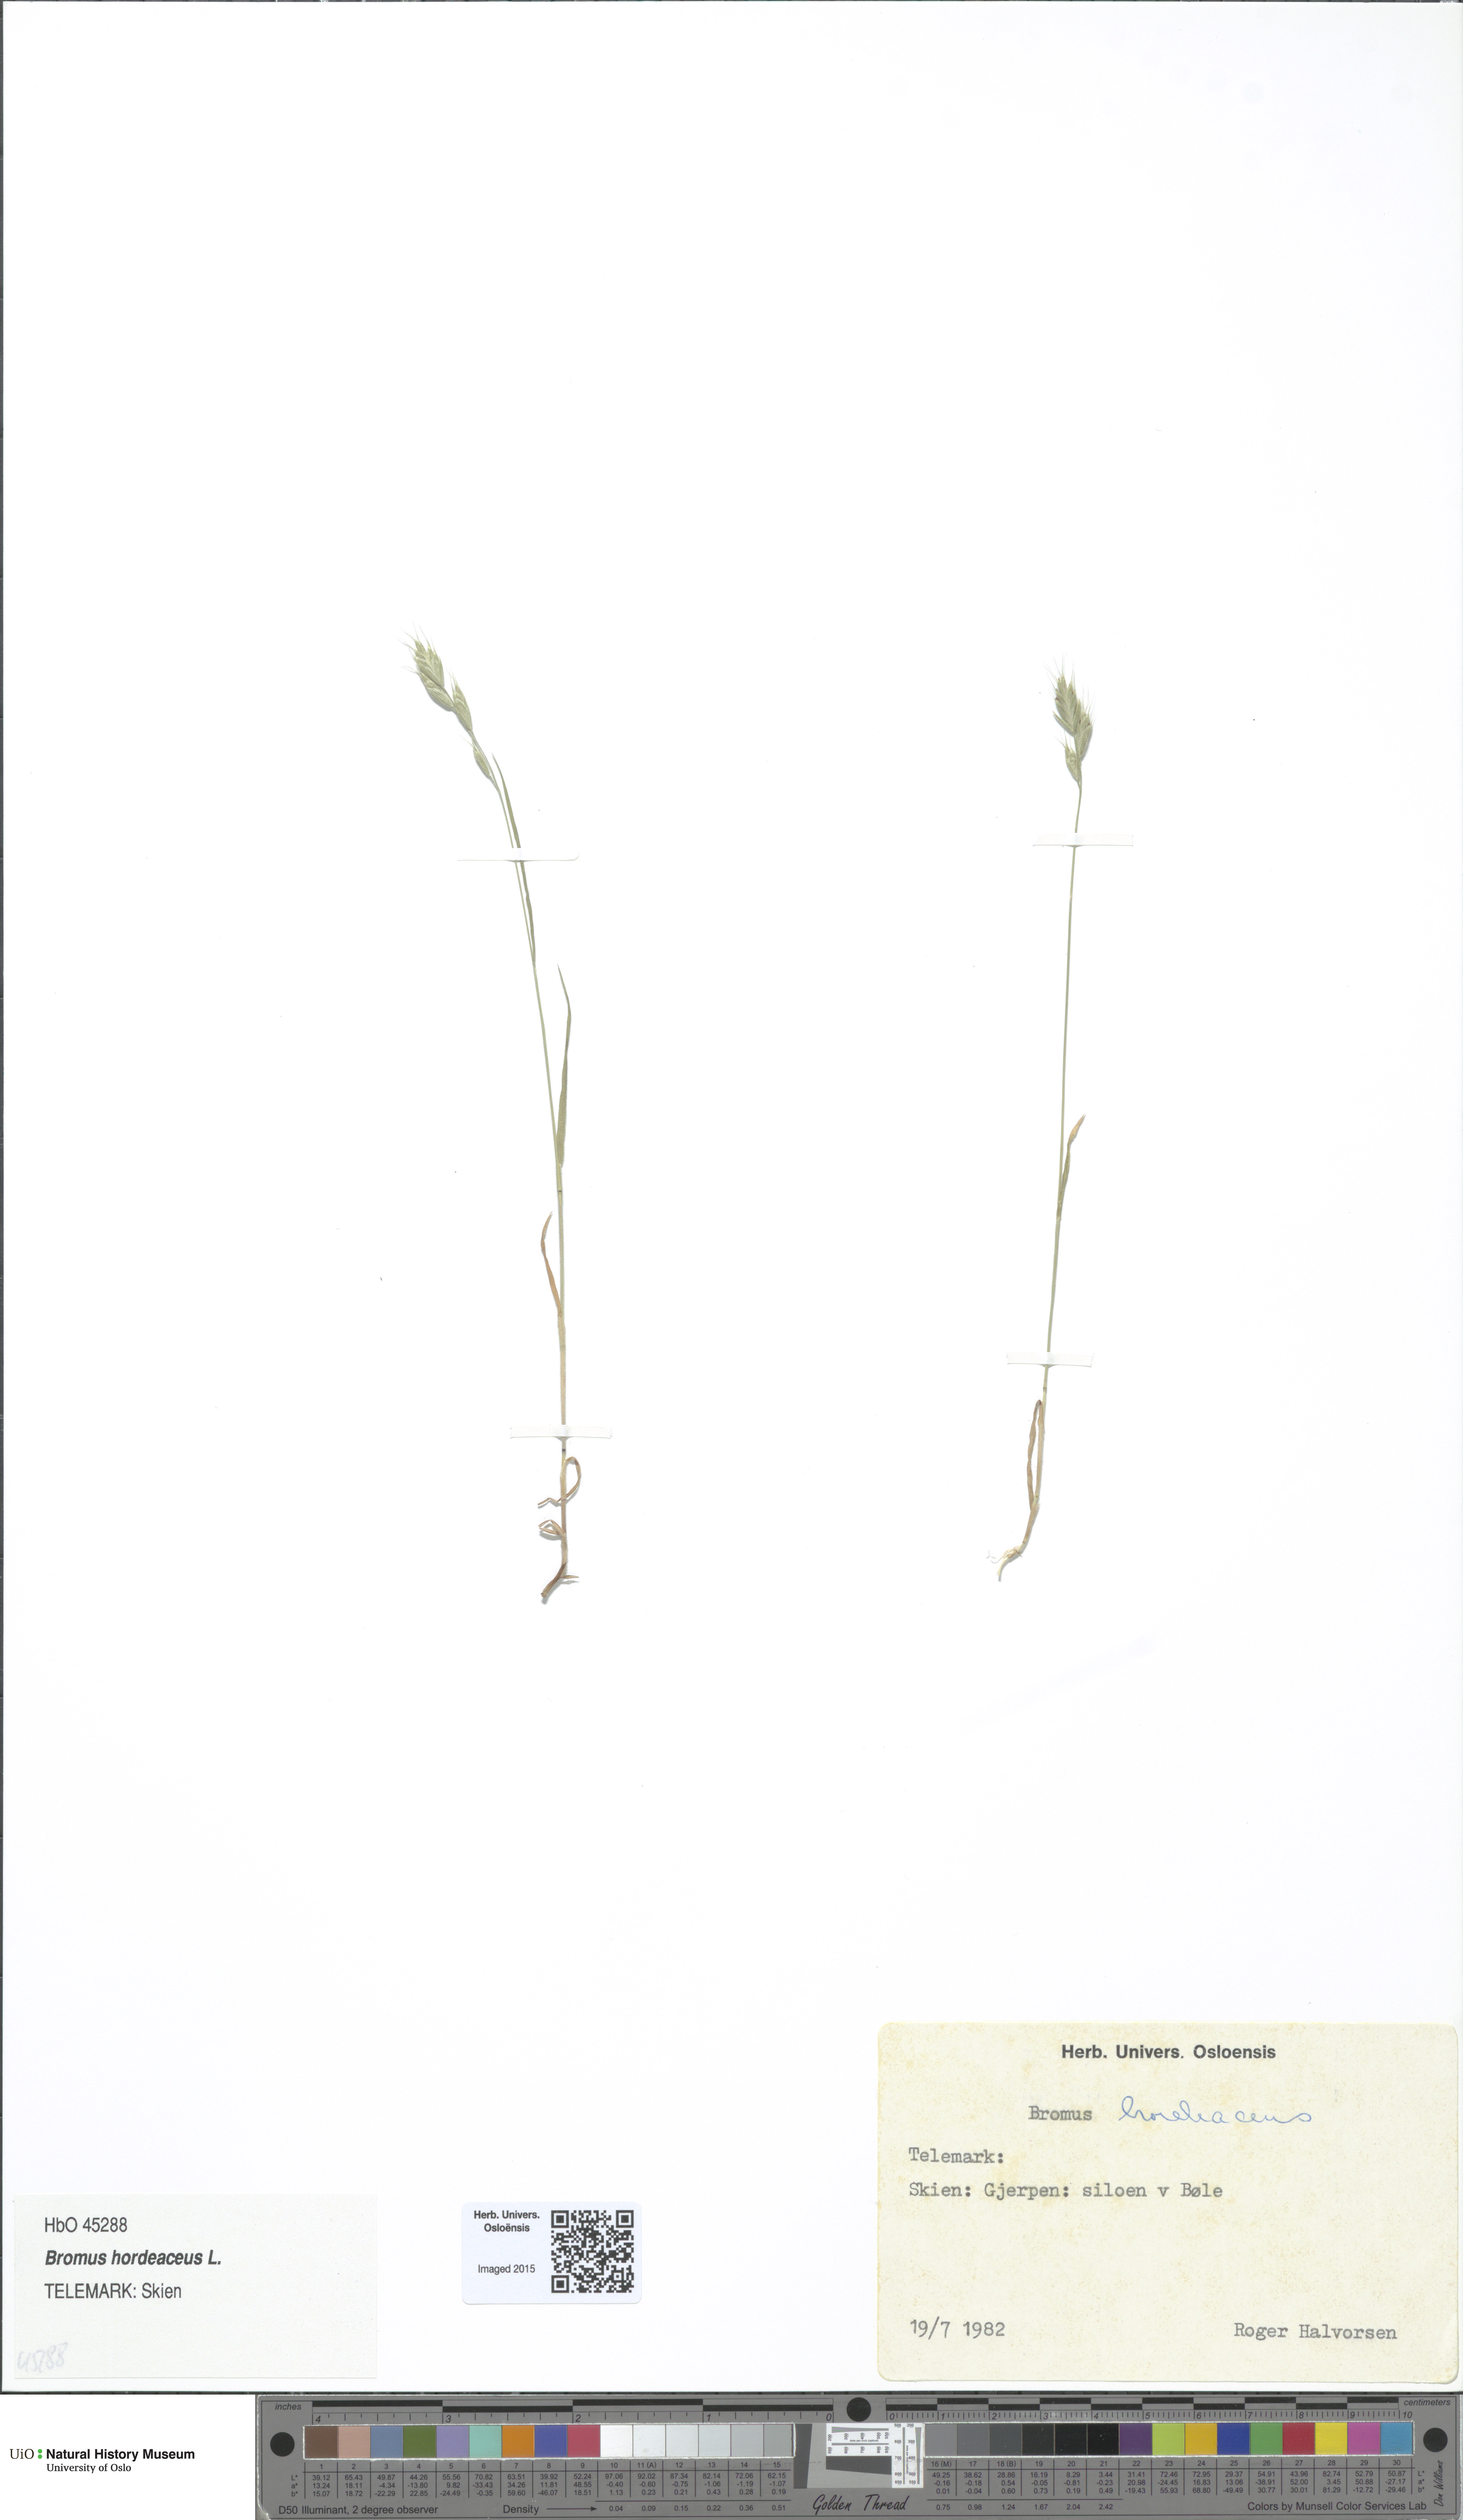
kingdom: Plantae
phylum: Tracheophyta
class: Liliopsida
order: Poales
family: Poaceae
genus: Bromus
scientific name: Bromus hordeaceus
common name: Soft brome
